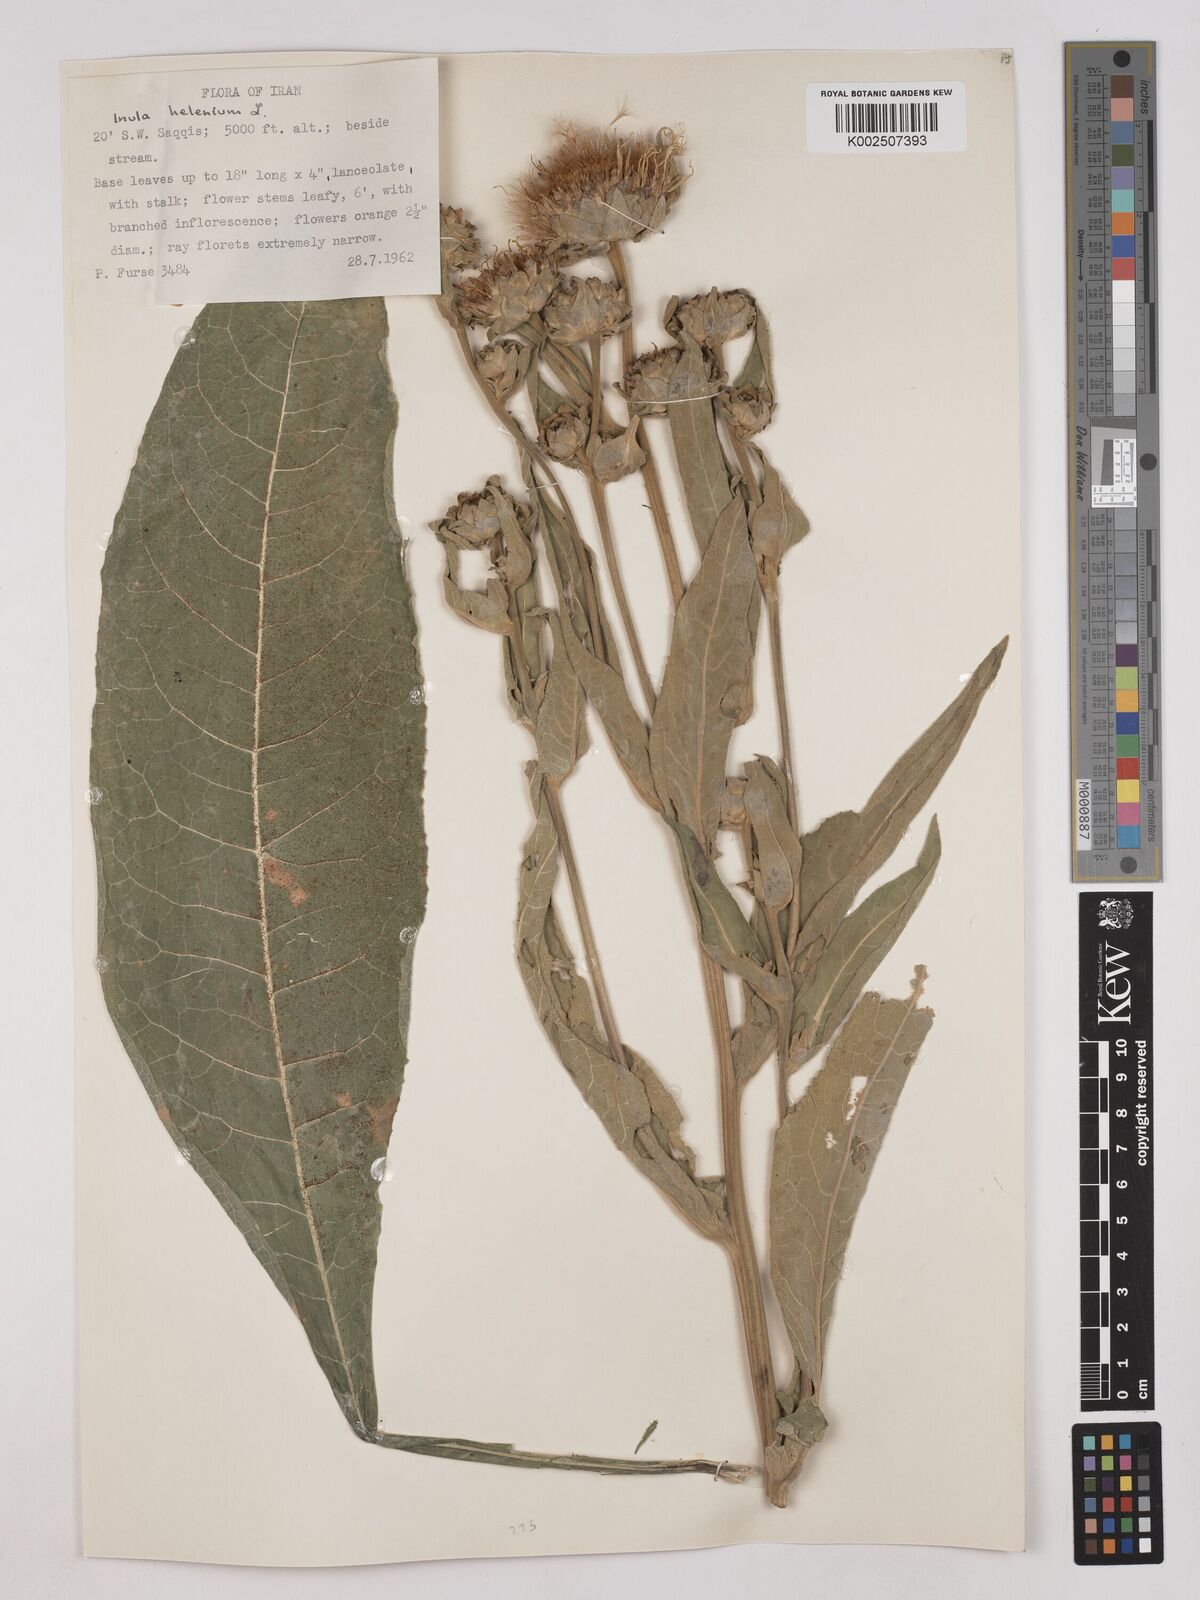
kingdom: Plantae
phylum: Tracheophyta
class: Magnoliopsida
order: Asterales
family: Asteraceae
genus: Inula
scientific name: Inula helenium
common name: Elecampane
